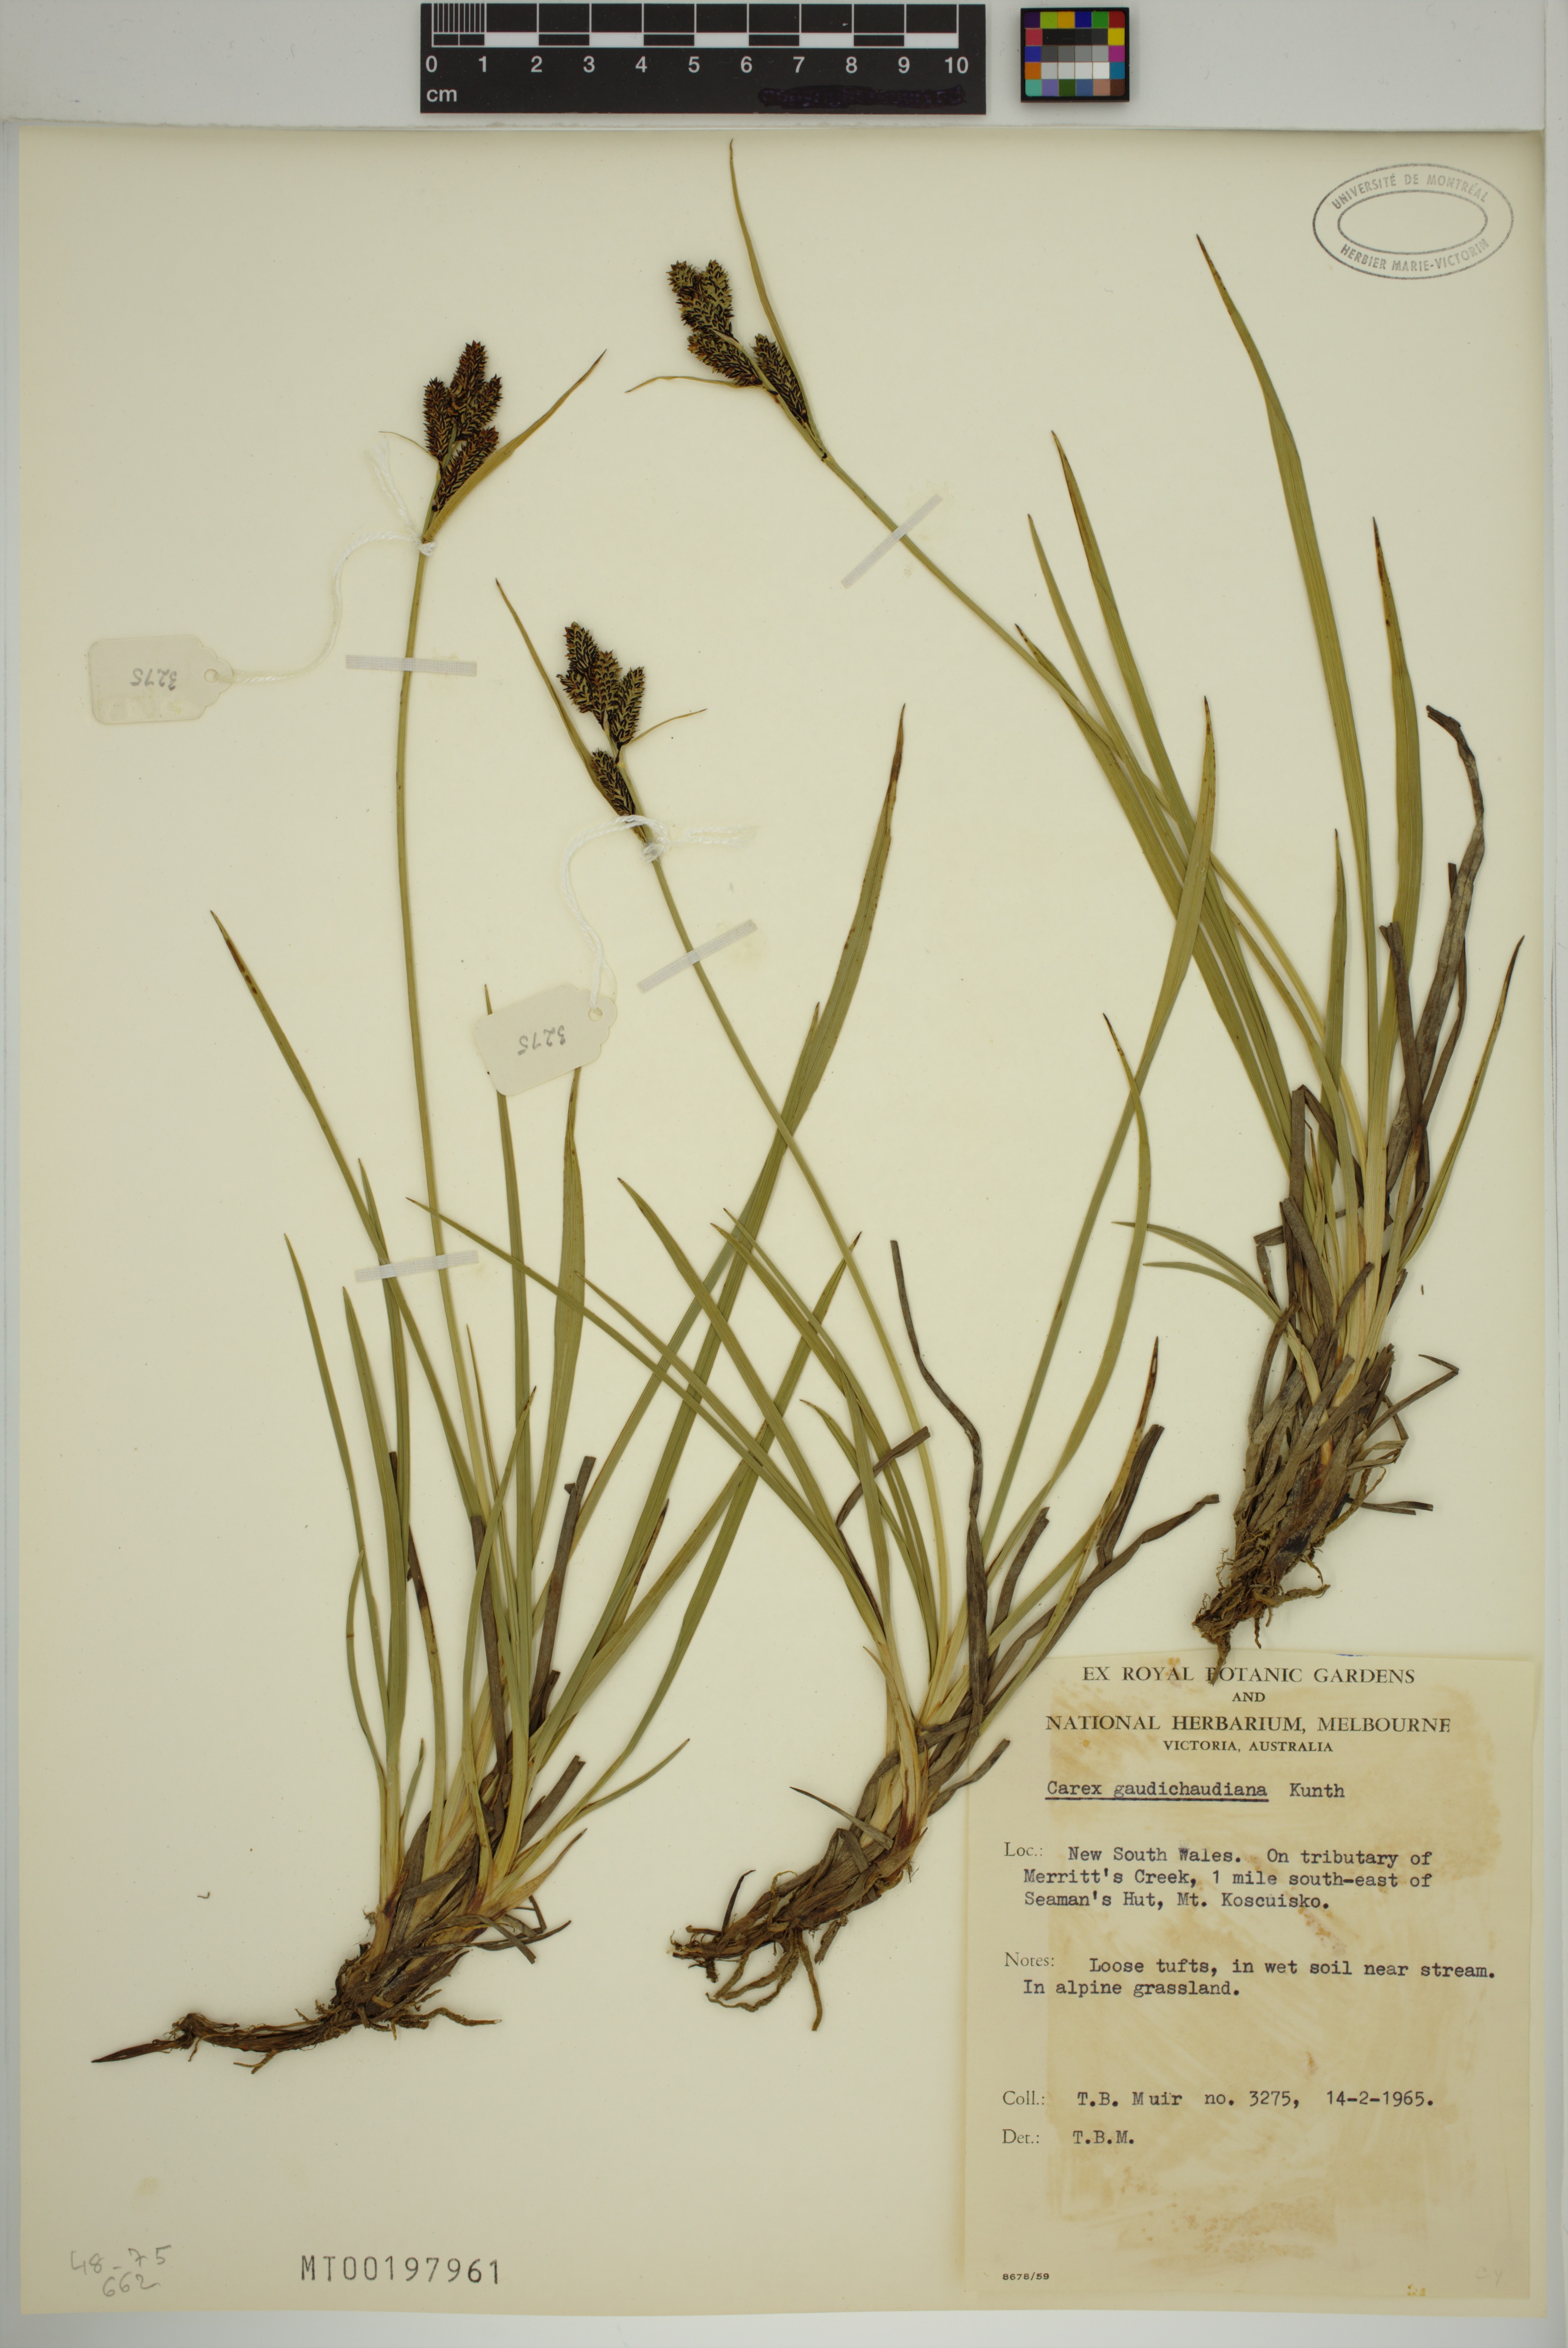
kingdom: Plantae
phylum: Tracheophyta
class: Liliopsida
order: Poales
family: Cyperaceae
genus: Carex
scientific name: Carex gaudichaudiana
